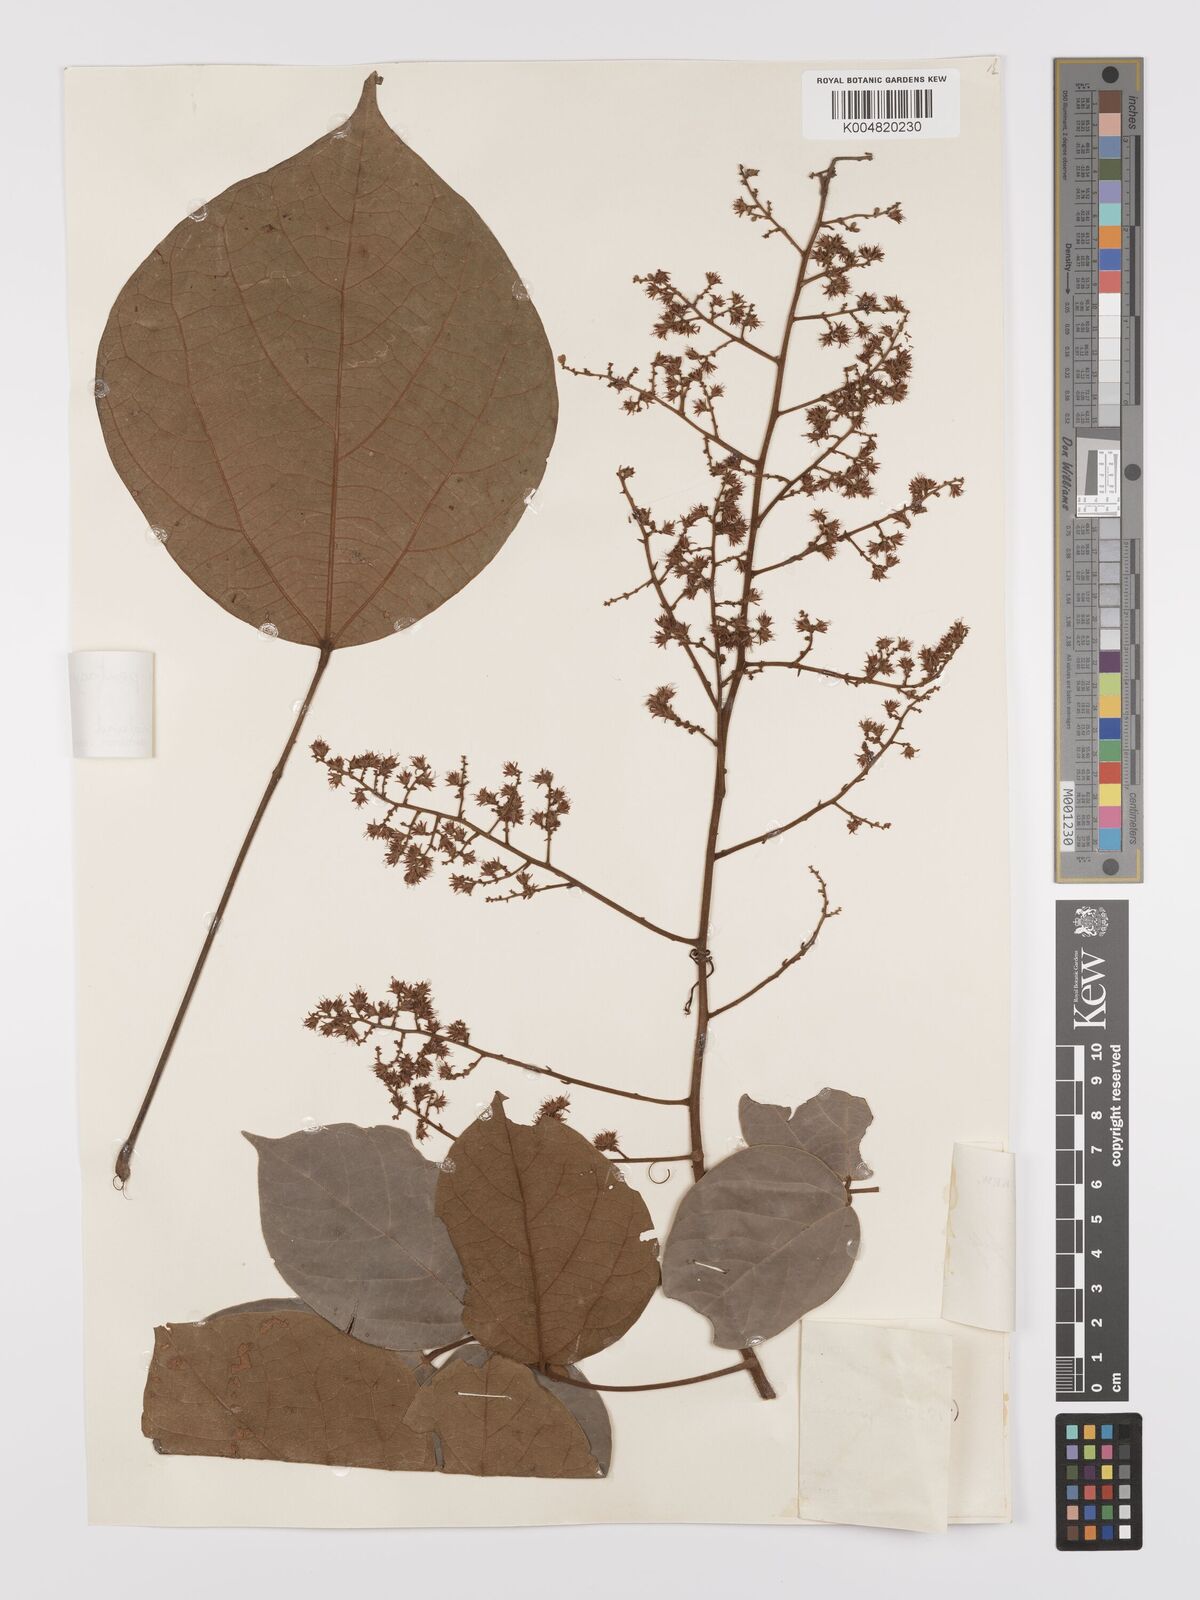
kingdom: Plantae
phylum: Tracheophyta
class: Magnoliopsida
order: Oxalidales
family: Connaraceae
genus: Agelaea
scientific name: Agelaea pentagyna
